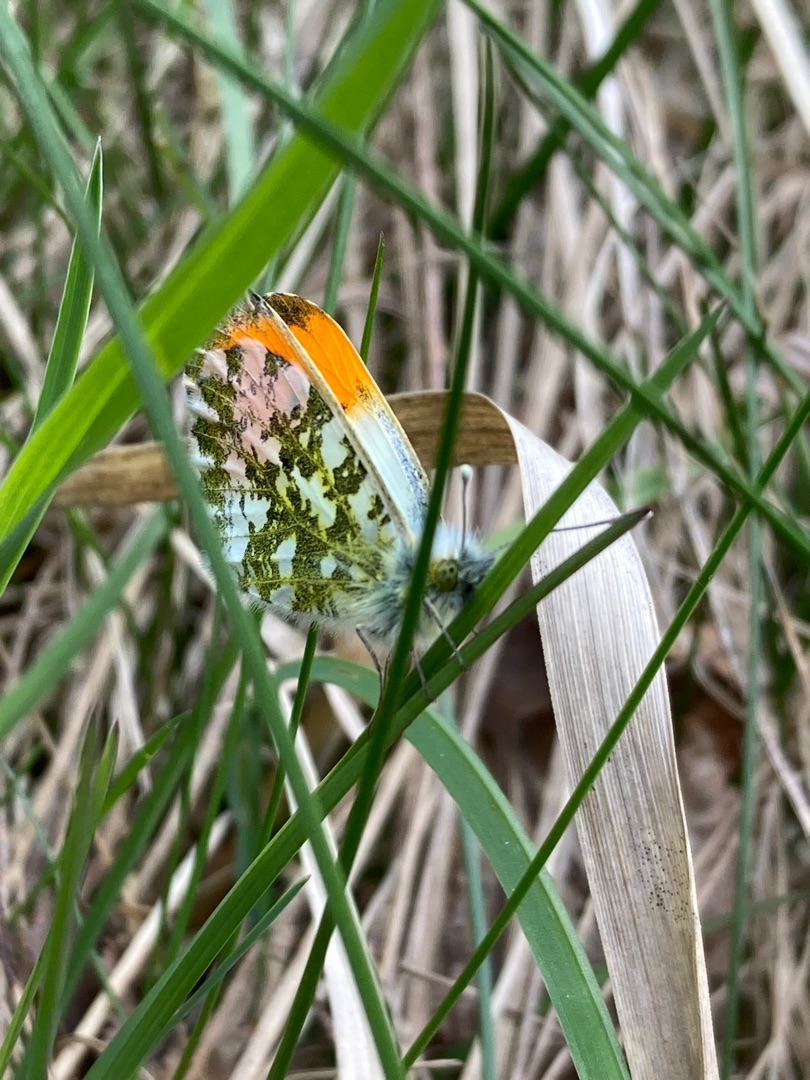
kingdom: Animalia
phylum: Arthropoda
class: Insecta
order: Lepidoptera
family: Pieridae
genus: Anthocharis
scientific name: Anthocharis cardamines
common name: Aurora
